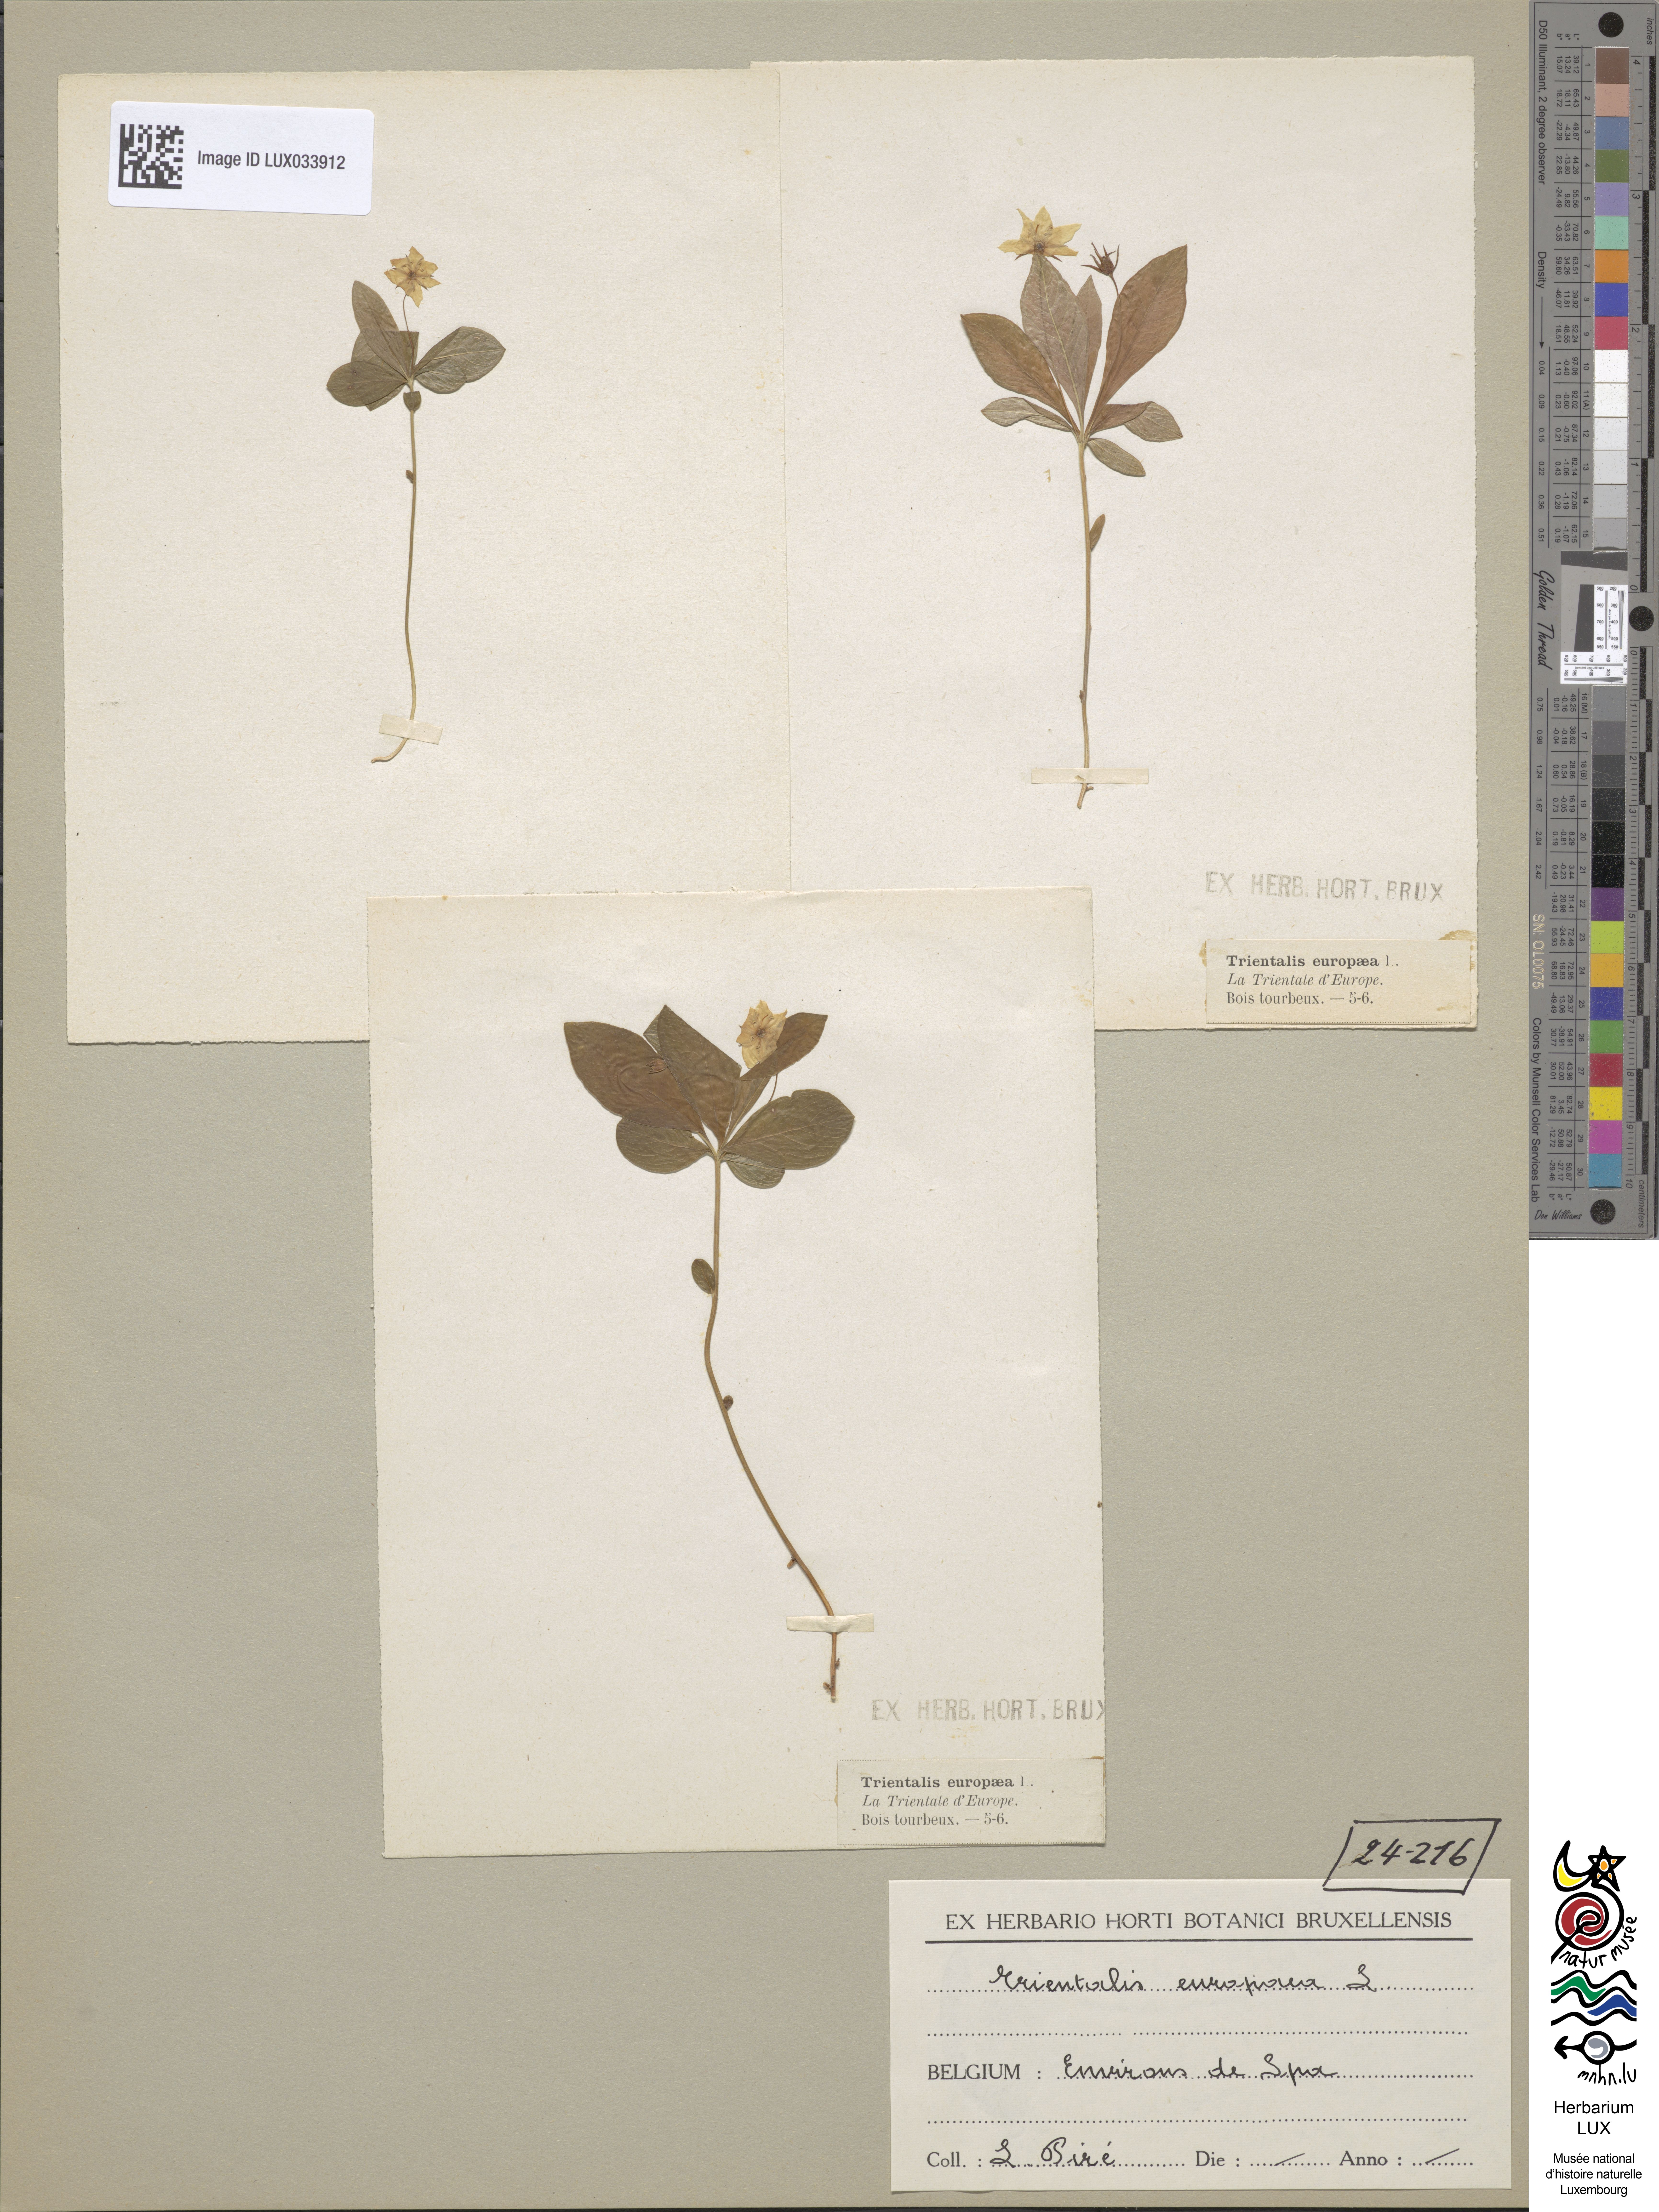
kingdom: Plantae
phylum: Tracheophyta
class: Magnoliopsida
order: Ericales
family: Primulaceae
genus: Lysimachia
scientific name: Lysimachia europaea
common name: Arctic starflower
